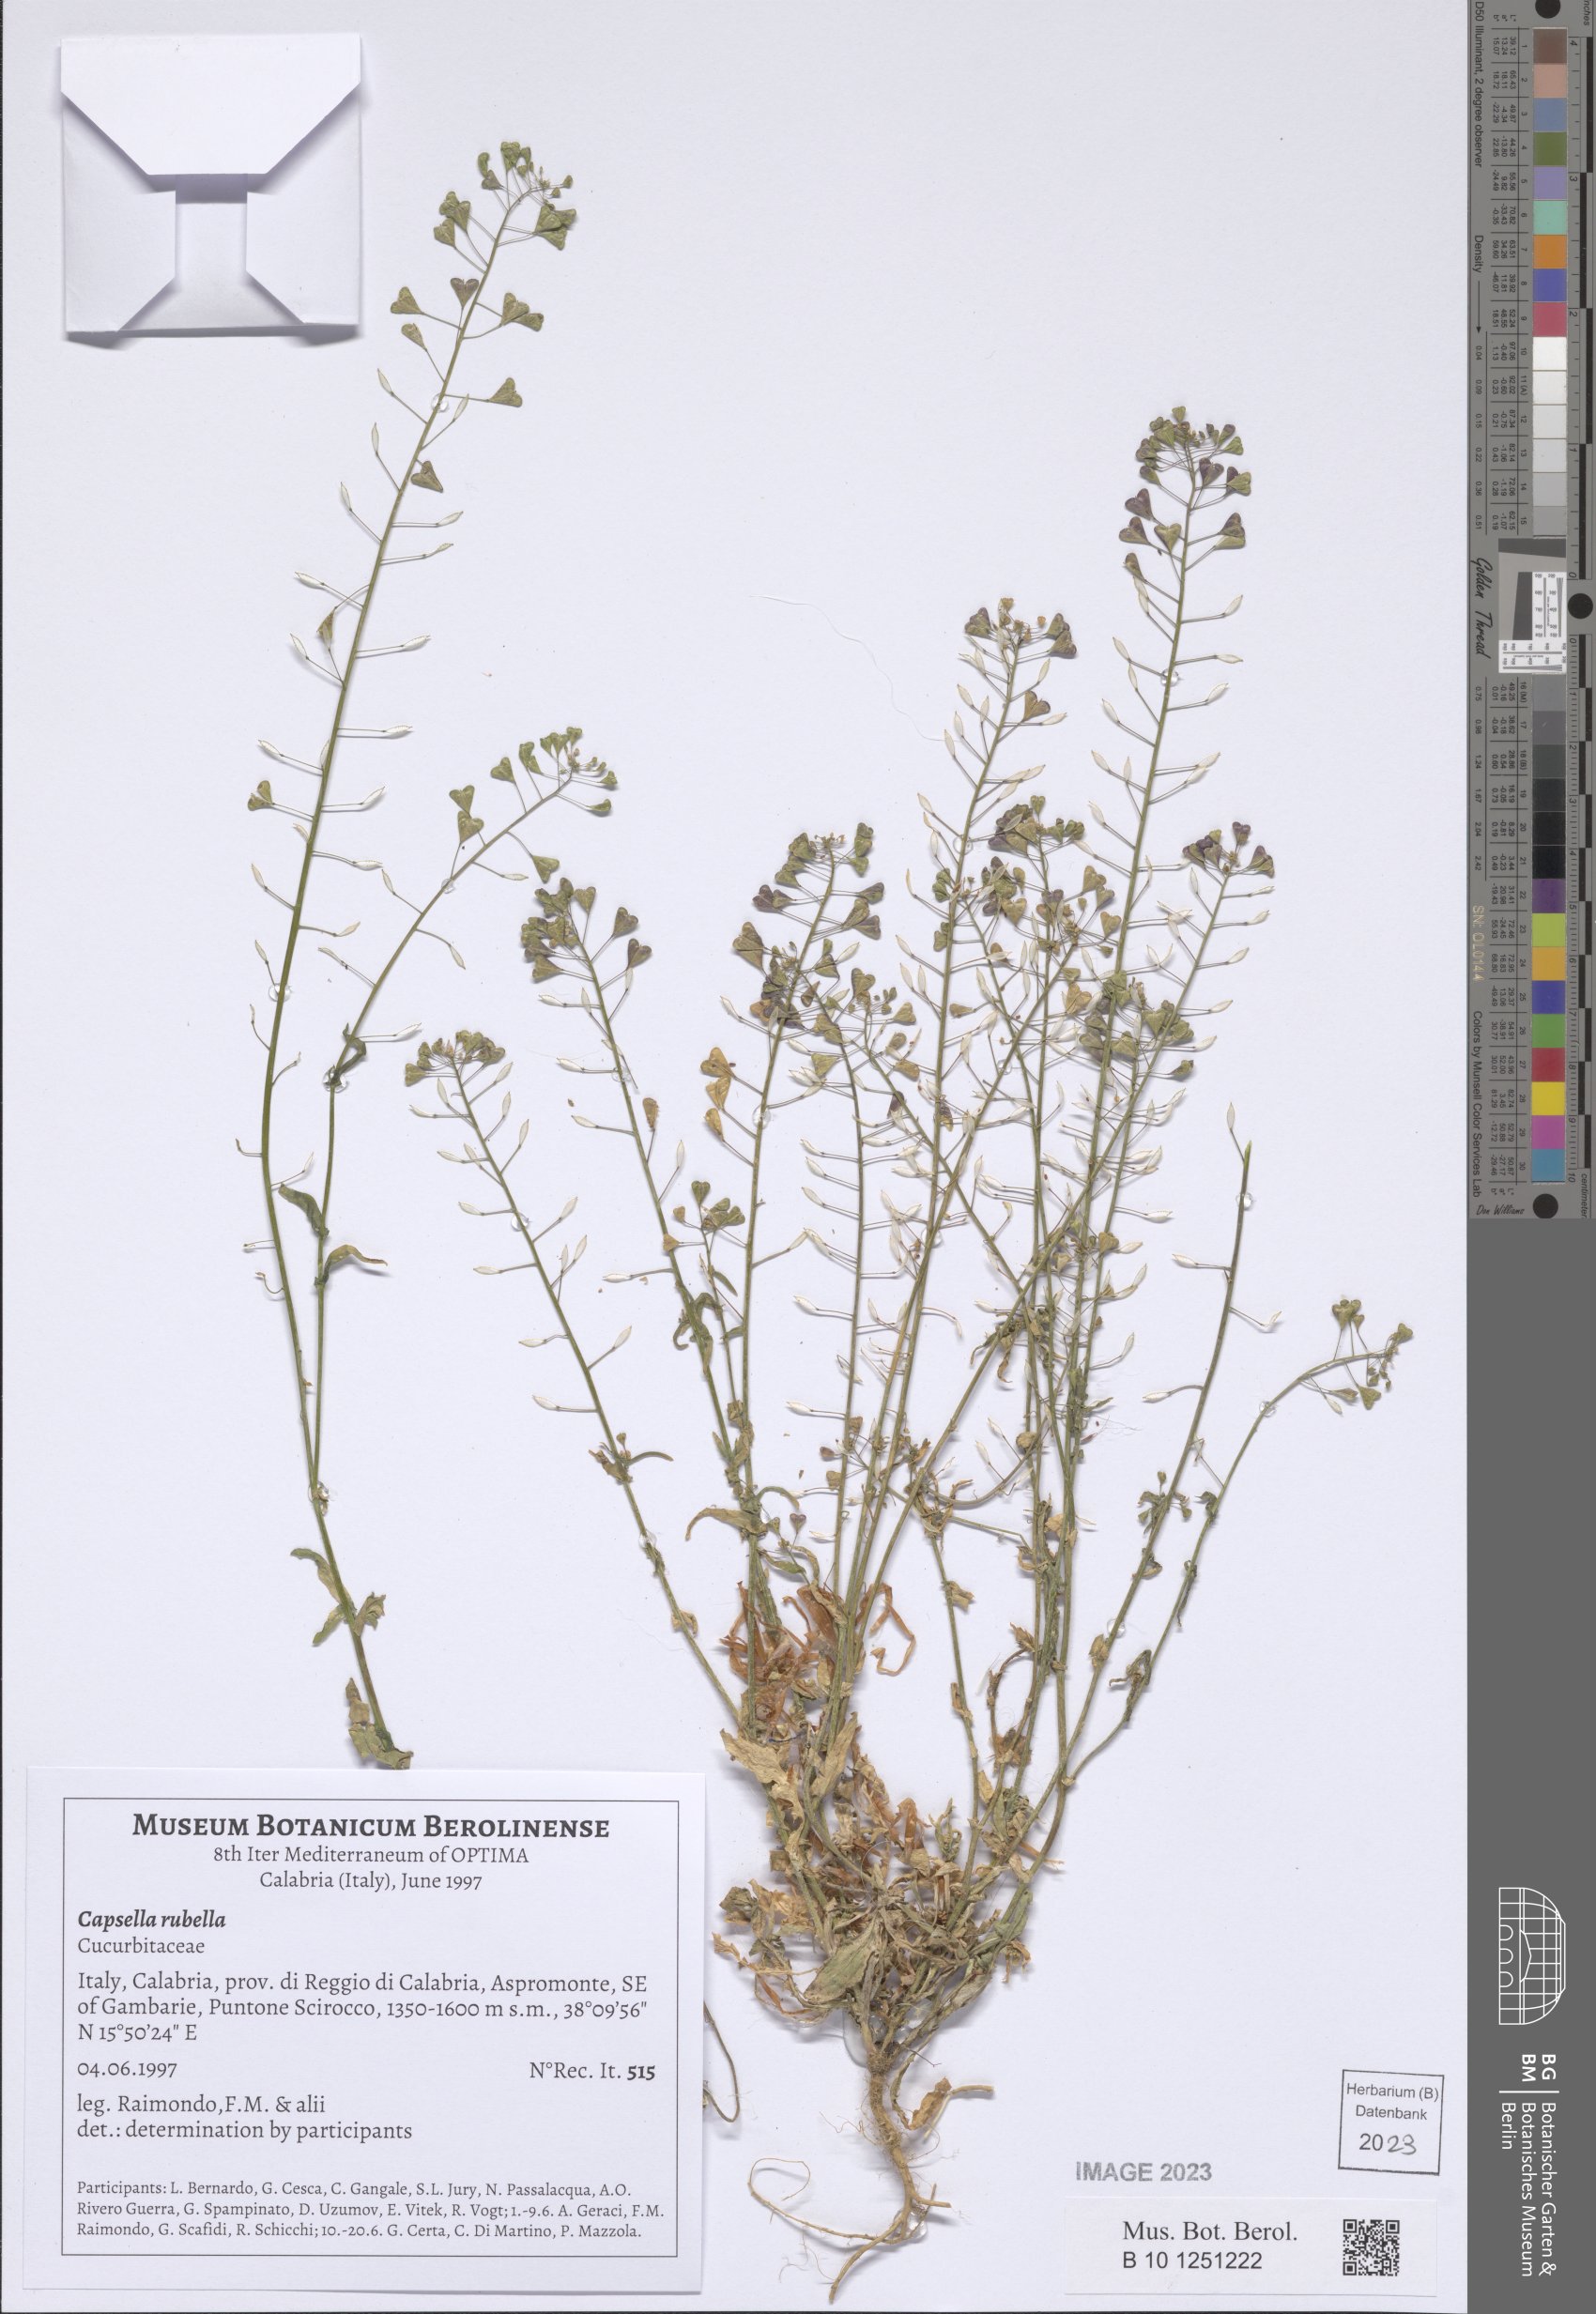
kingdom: Plantae
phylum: Tracheophyta
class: Magnoliopsida
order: Brassicales
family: Brassicaceae
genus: Capsella
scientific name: Capsella rubella
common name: Pink shepherd's-purse
